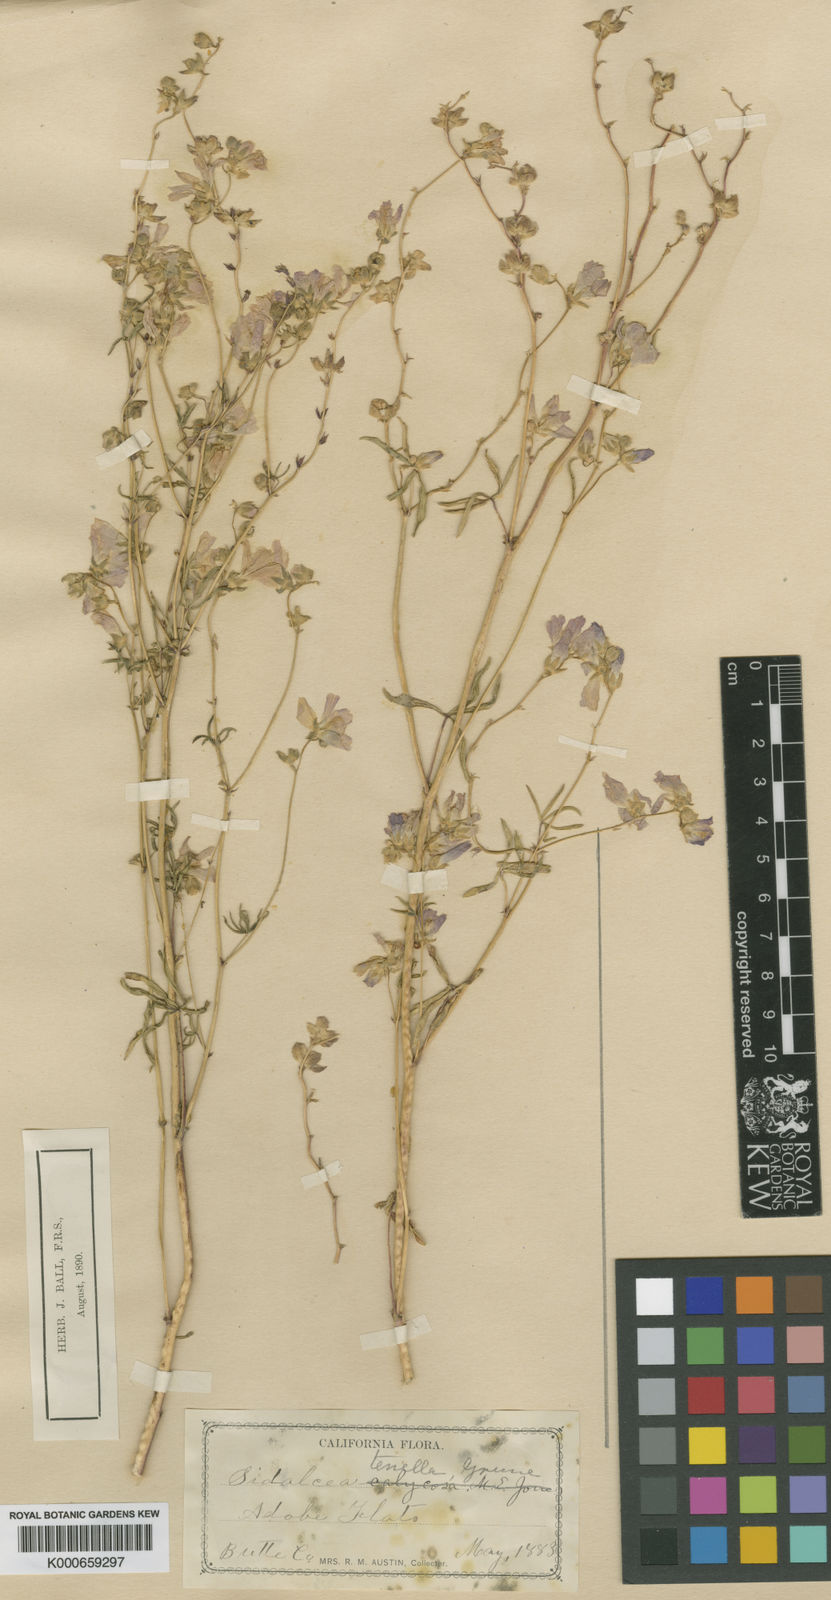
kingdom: Plantae
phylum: Tracheophyta
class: Magnoliopsida
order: Malvales
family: Malvaceae
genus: Sidalcea
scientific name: Sidalcea hartwegii
